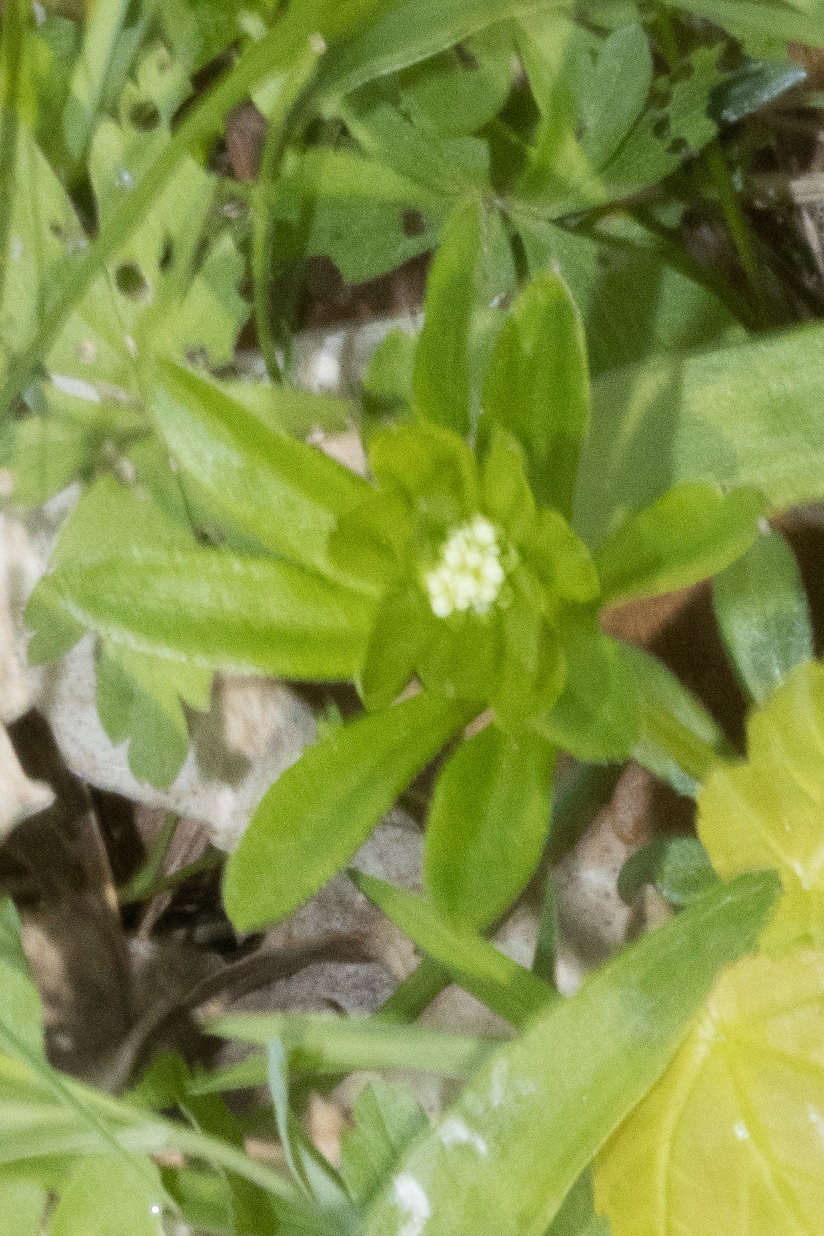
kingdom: Plantae
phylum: Tracheophyta
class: Magnoliopsida
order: Gentianales
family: Rubiaceae
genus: Galium
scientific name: Galium odoratum
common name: Skovmærke
